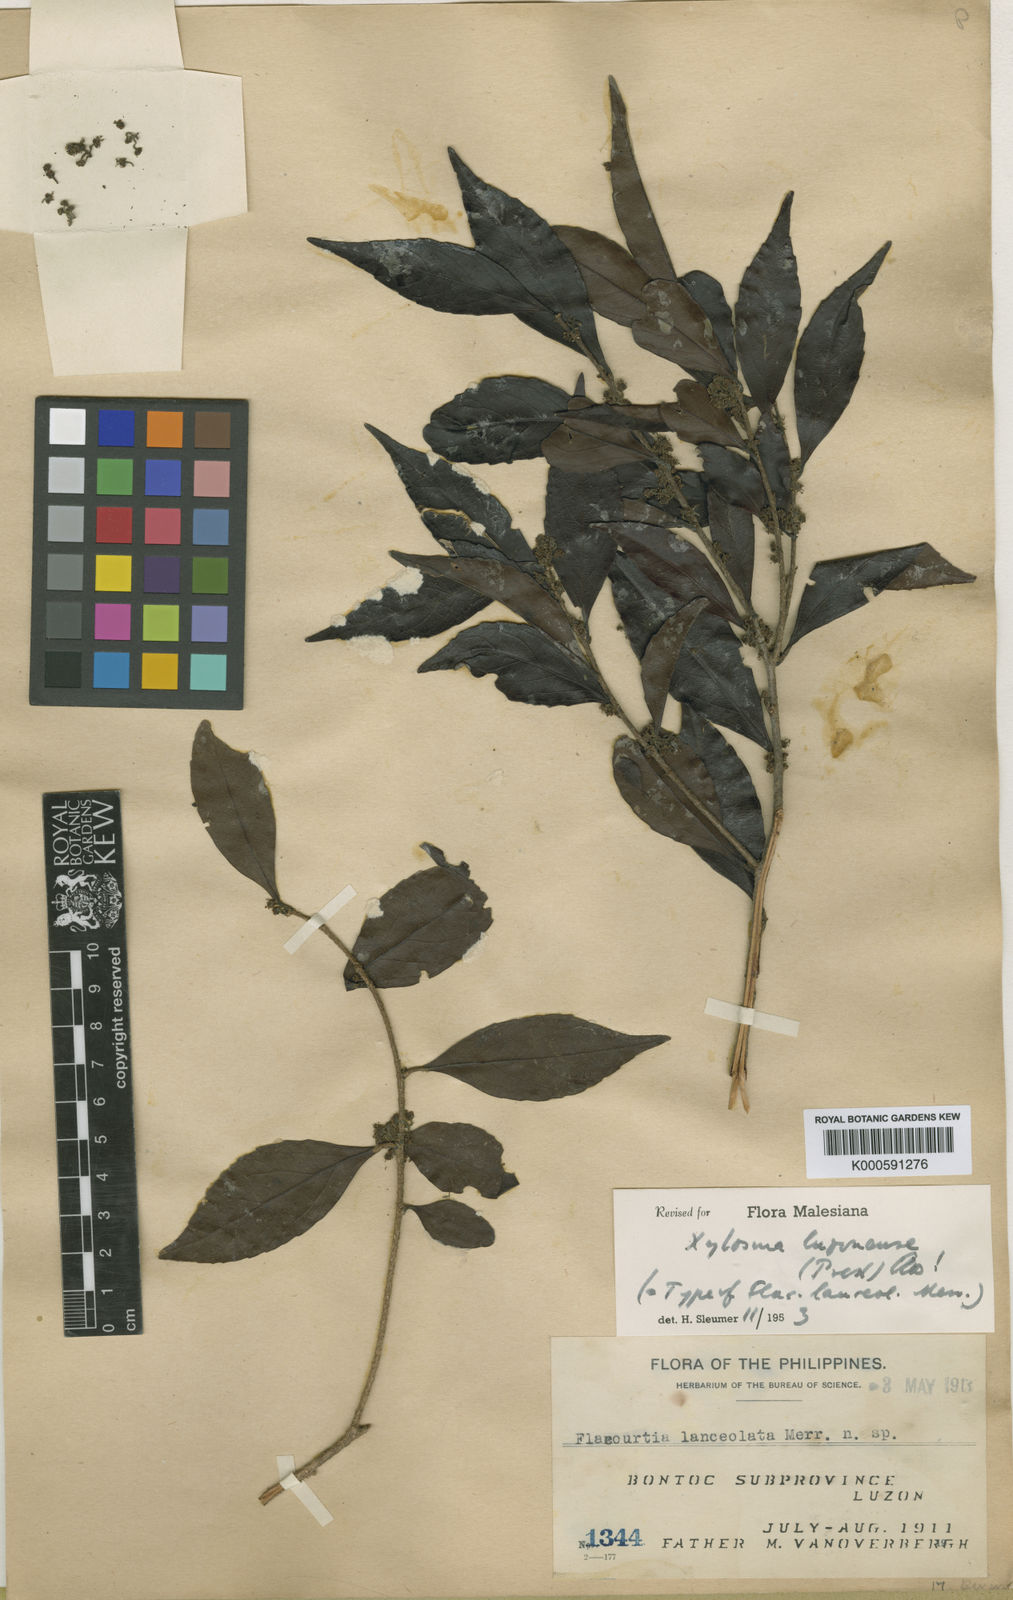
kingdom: Plantae
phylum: Tracheophyta
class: Magnoliopsida
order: Malpighiales
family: Salicaceae
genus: Xylosma
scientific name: Xylosma luzonensis
